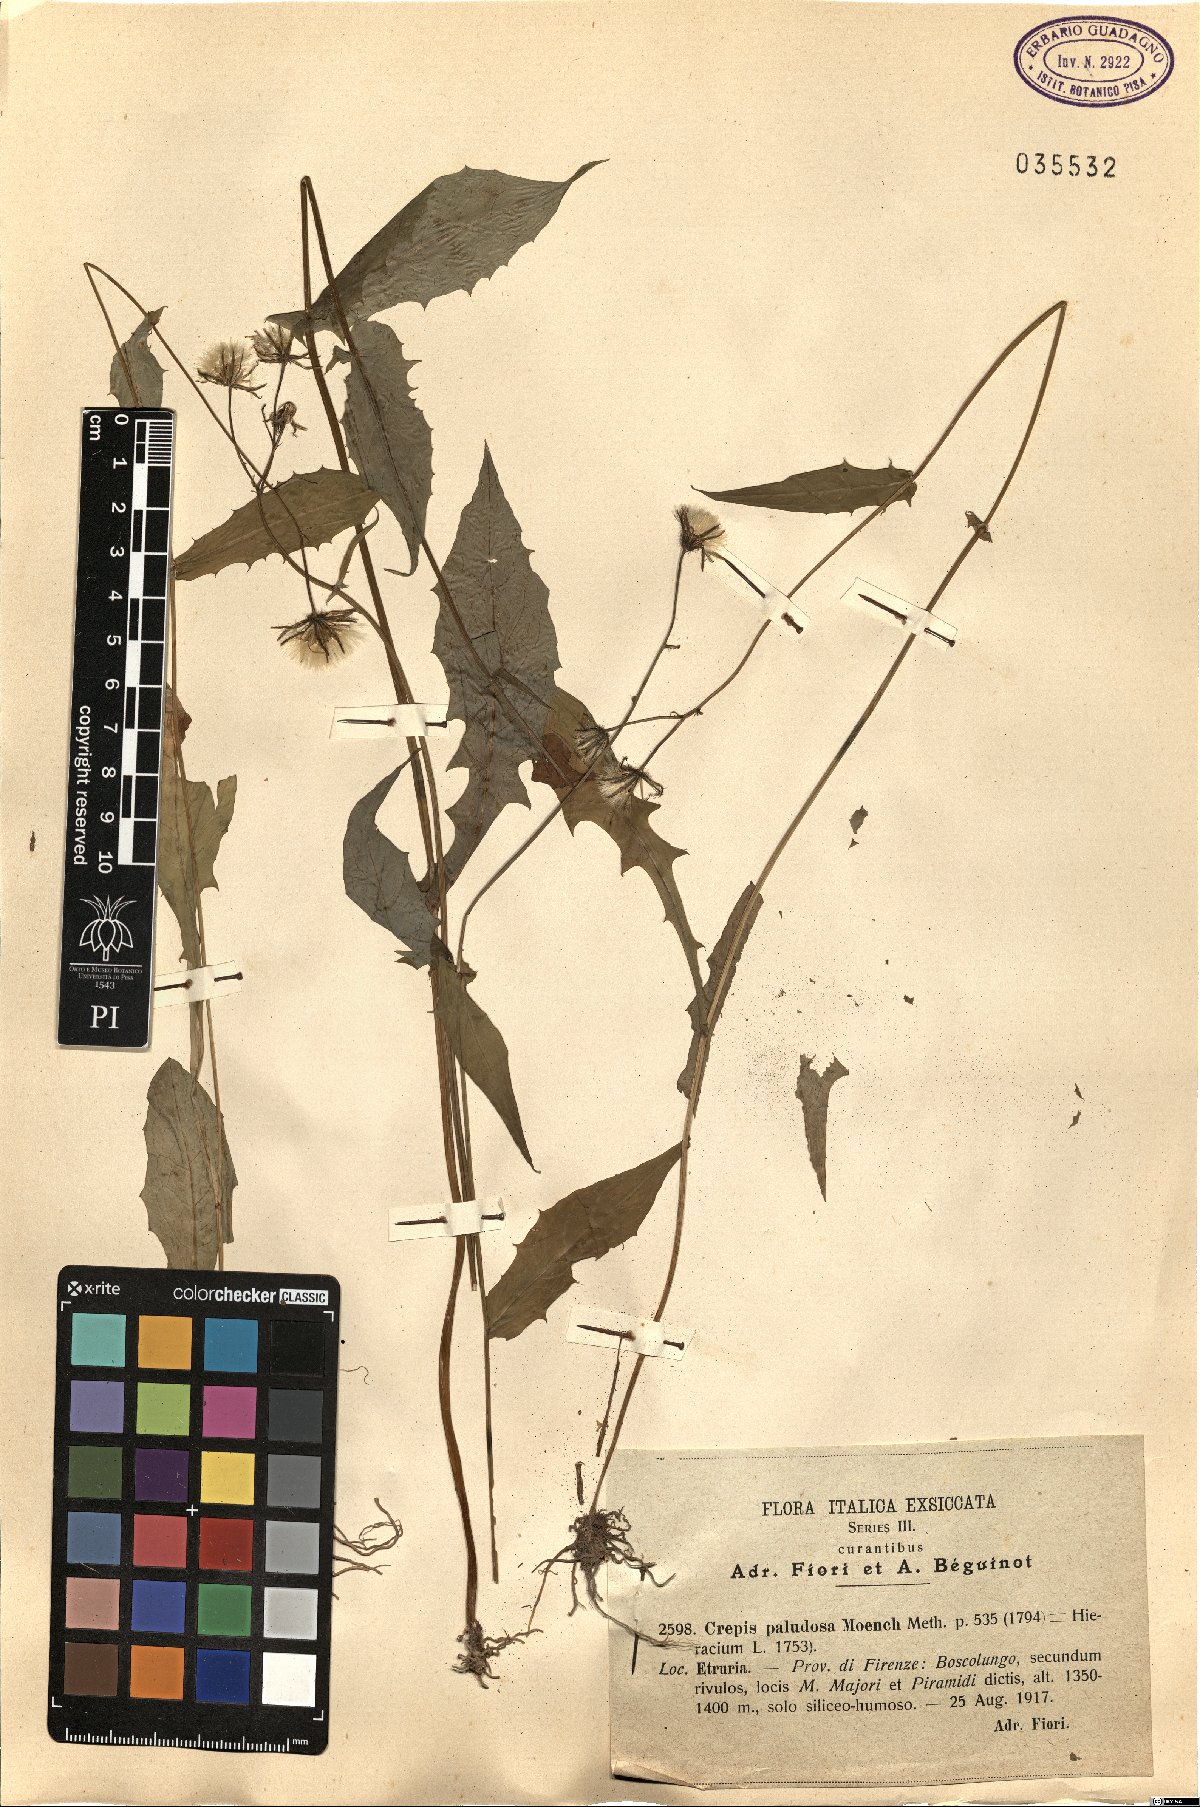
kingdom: Plantae
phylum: Tracheophyta
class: Magnoliopsida
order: Asterales
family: Asteraceae
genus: Crepis
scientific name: Crepis paludosa
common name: Marsh hawk's-beard
